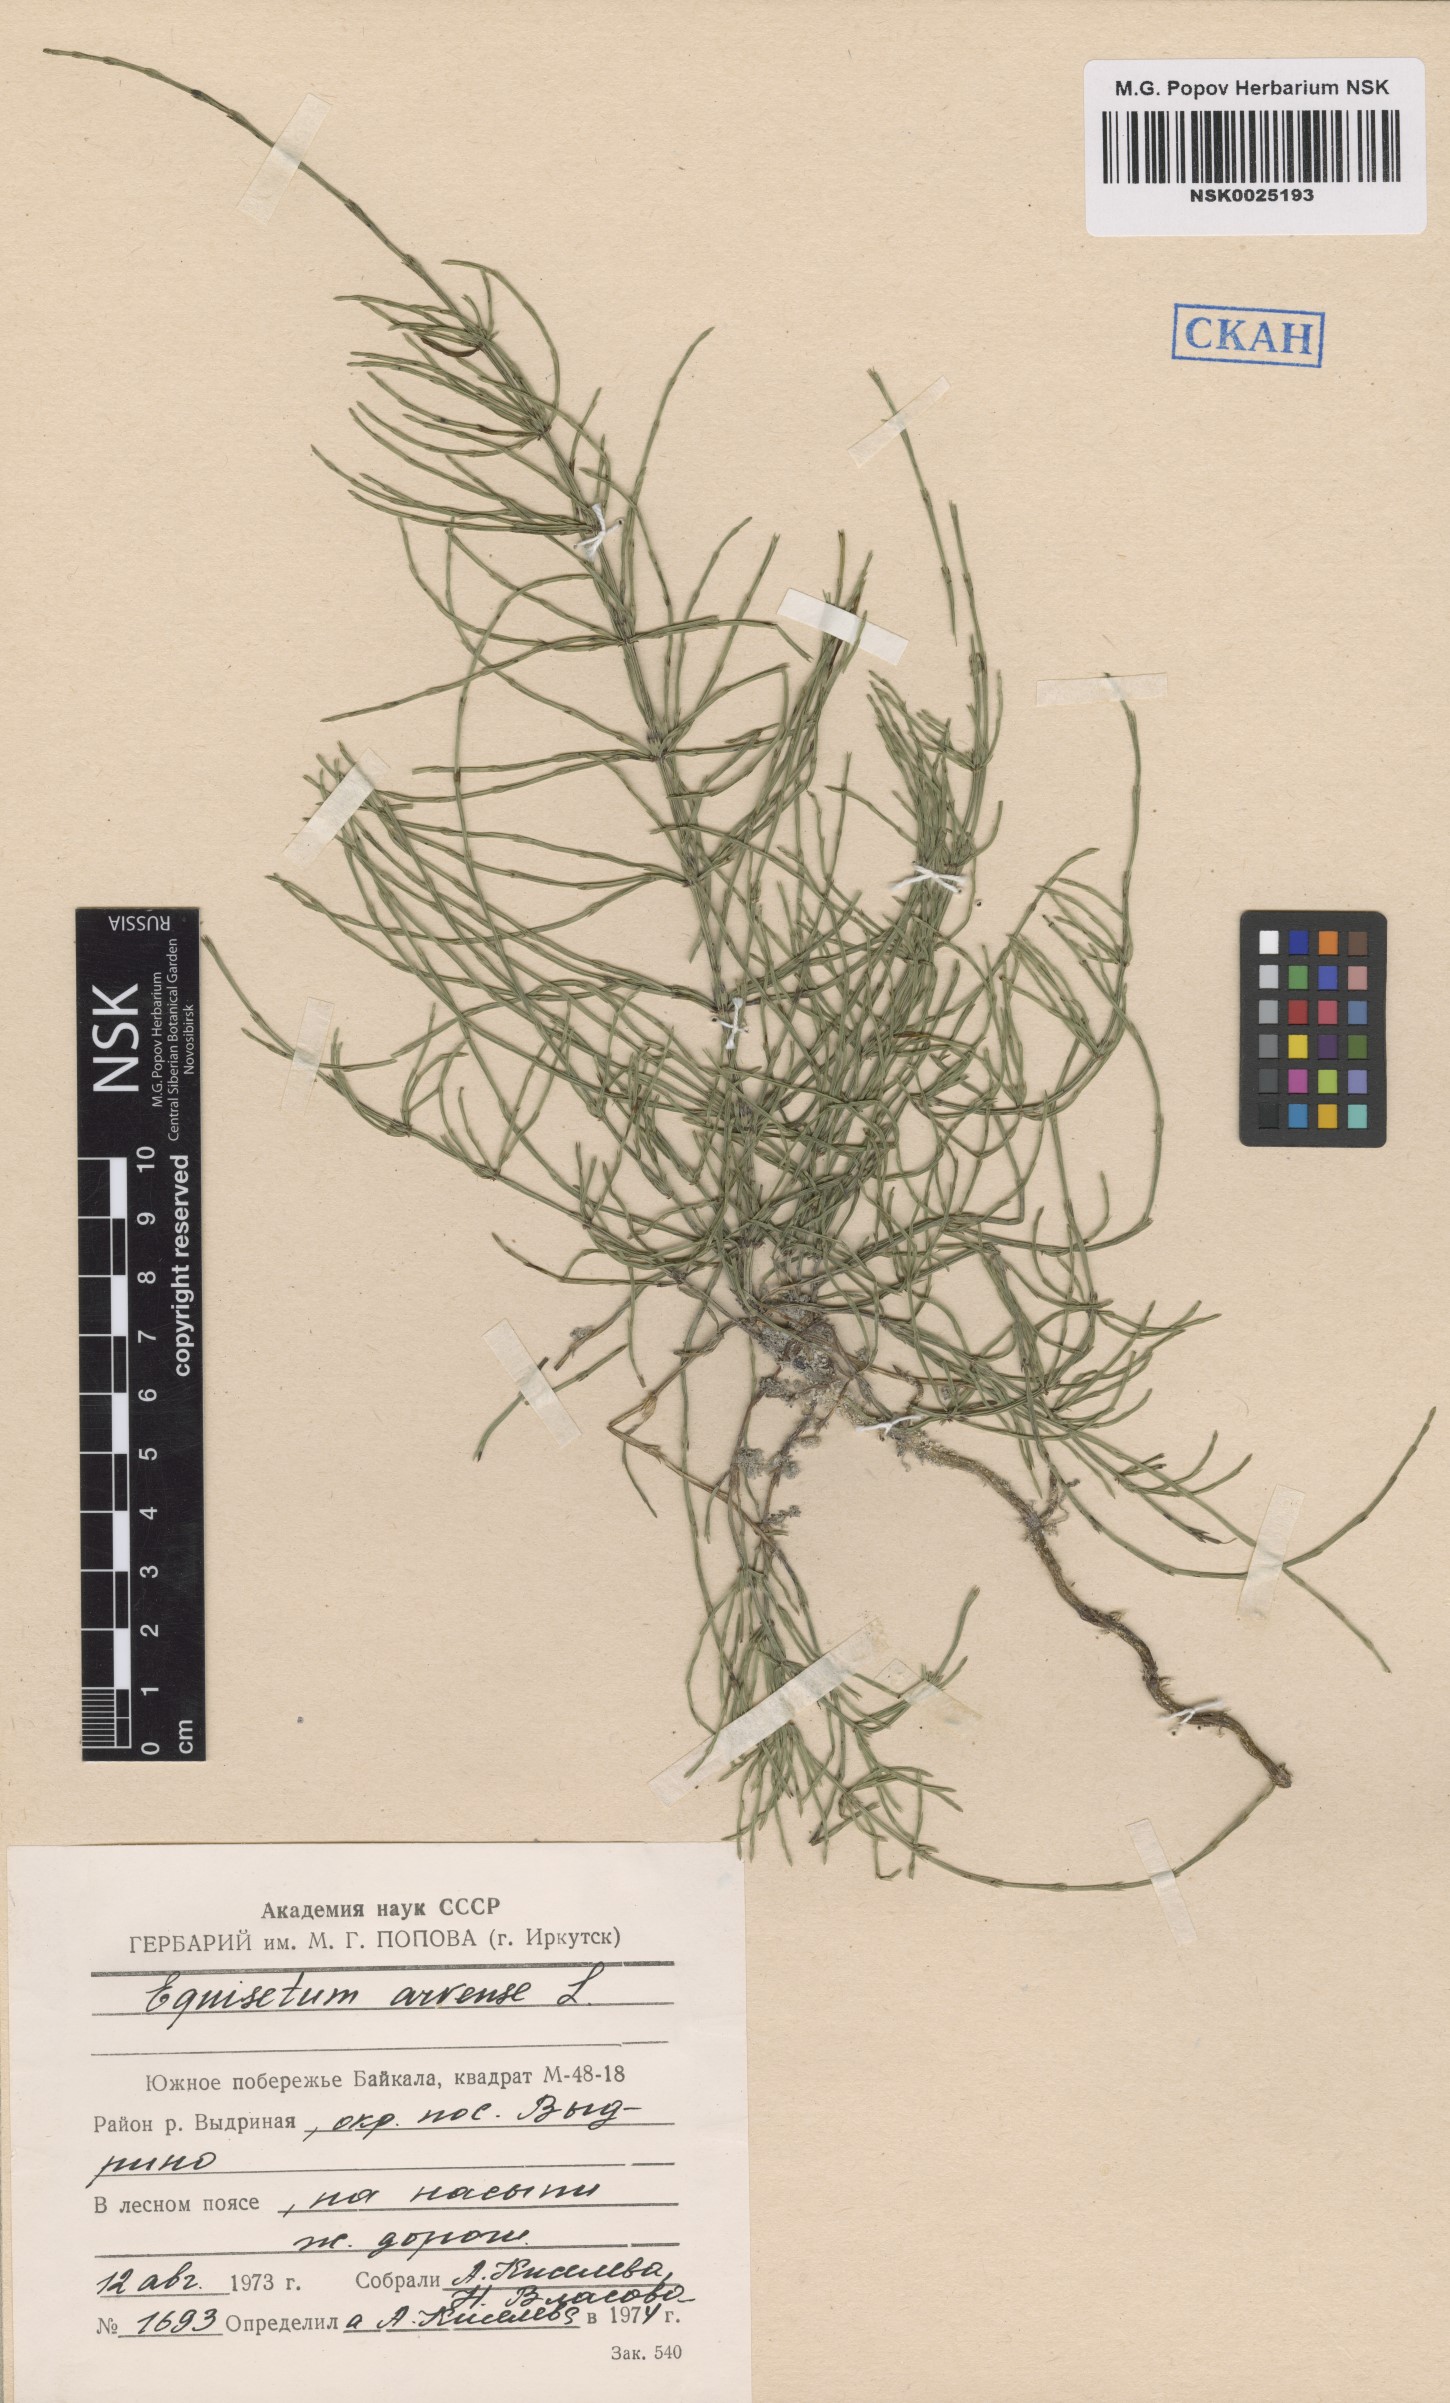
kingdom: Plantae
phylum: Tracheophyta
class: Polypodiopsida
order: Equisetales
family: Equisetaceae
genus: Equisetum
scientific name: Equisetum arvense
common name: Field horsetail
